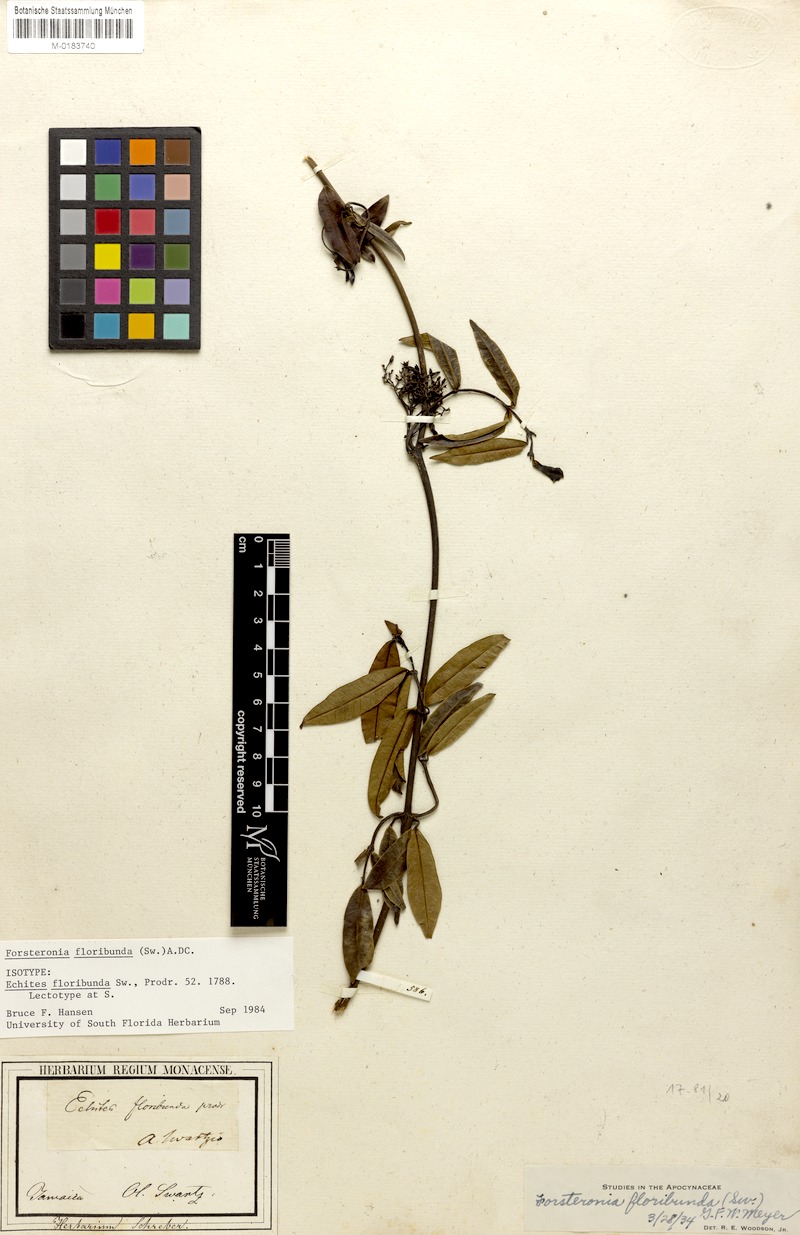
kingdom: Plantae
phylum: Tracheophyta
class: Magnoliopsida
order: Gentianales
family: Apocynaceae
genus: Pinochia
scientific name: Pinochia floribunda
